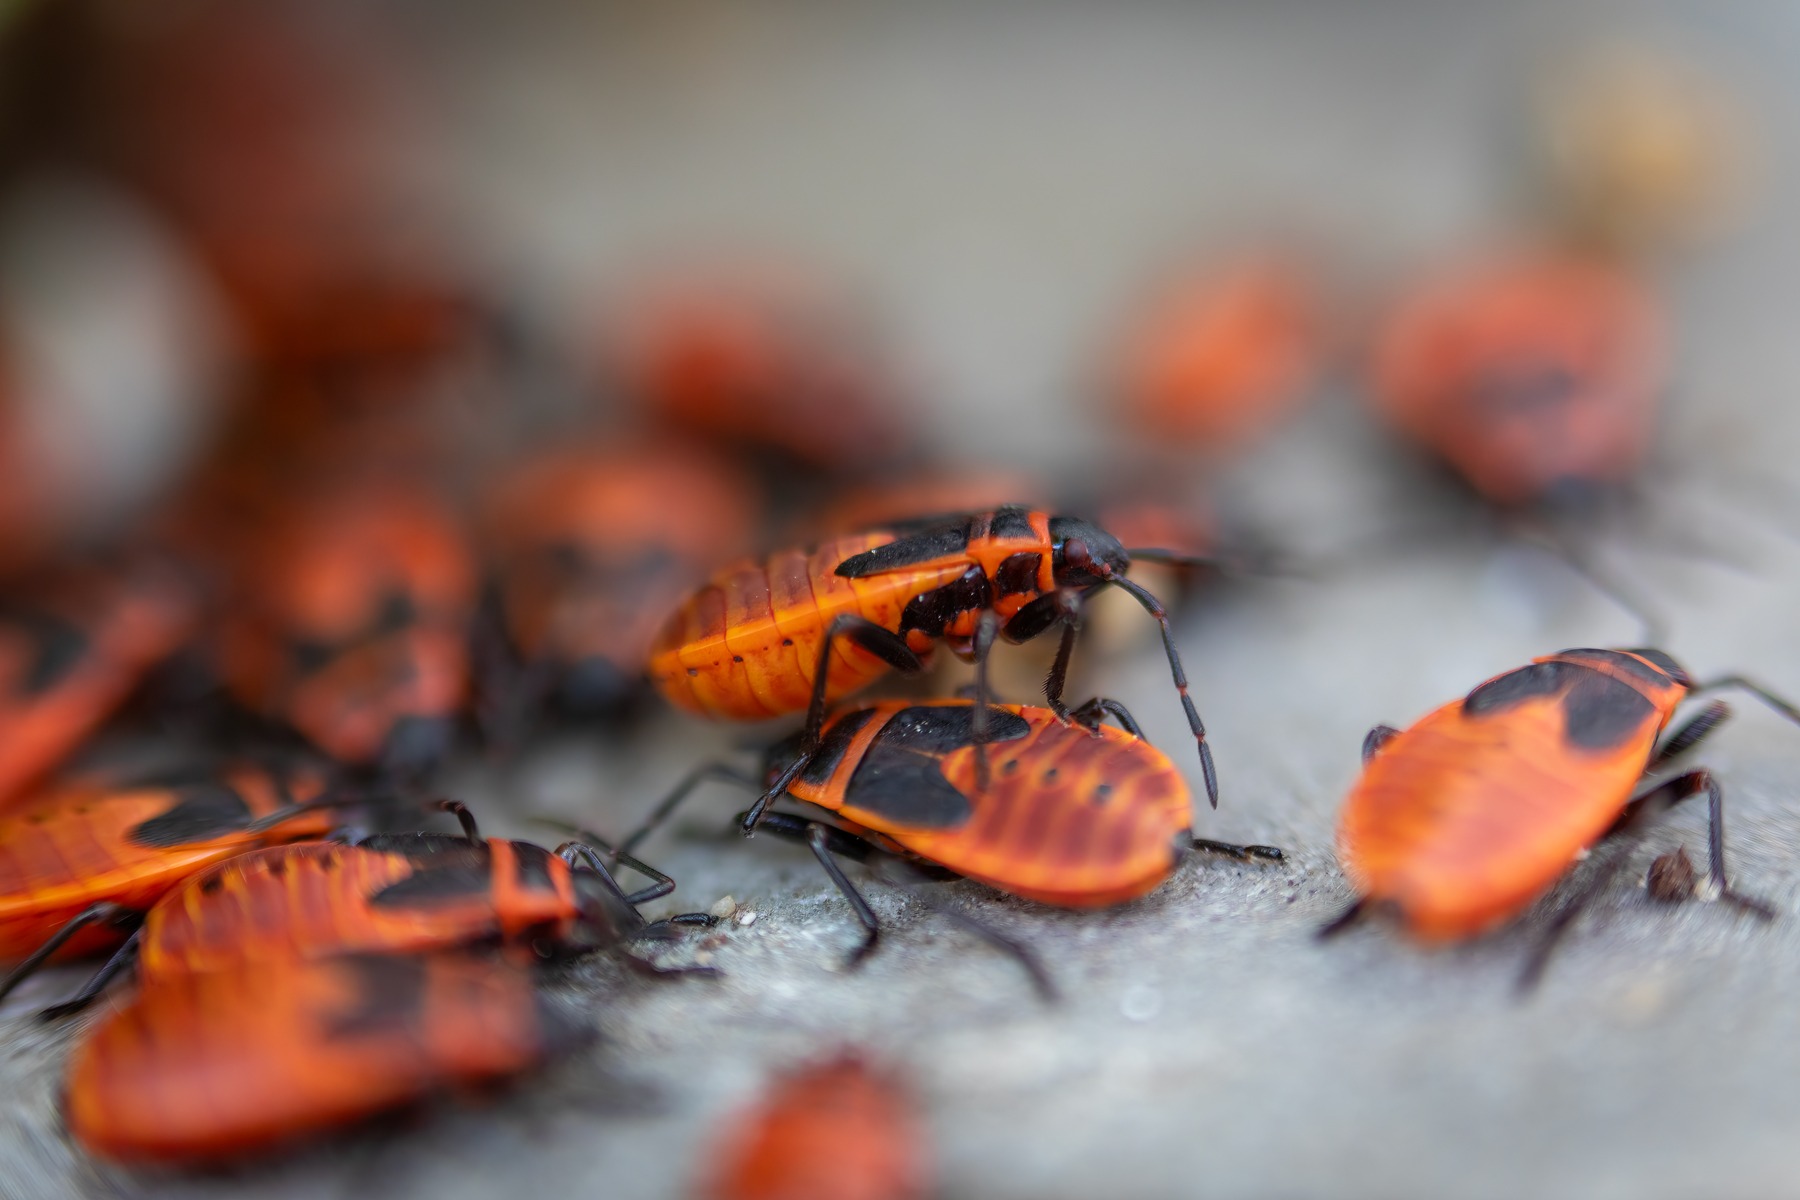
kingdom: Animalia
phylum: Arthropoda
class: Insecta
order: Hemiptera
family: Pyrrhocoridae
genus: Pyrrhocoris
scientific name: Pyrrhocoris apterus
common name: Ildtæge
